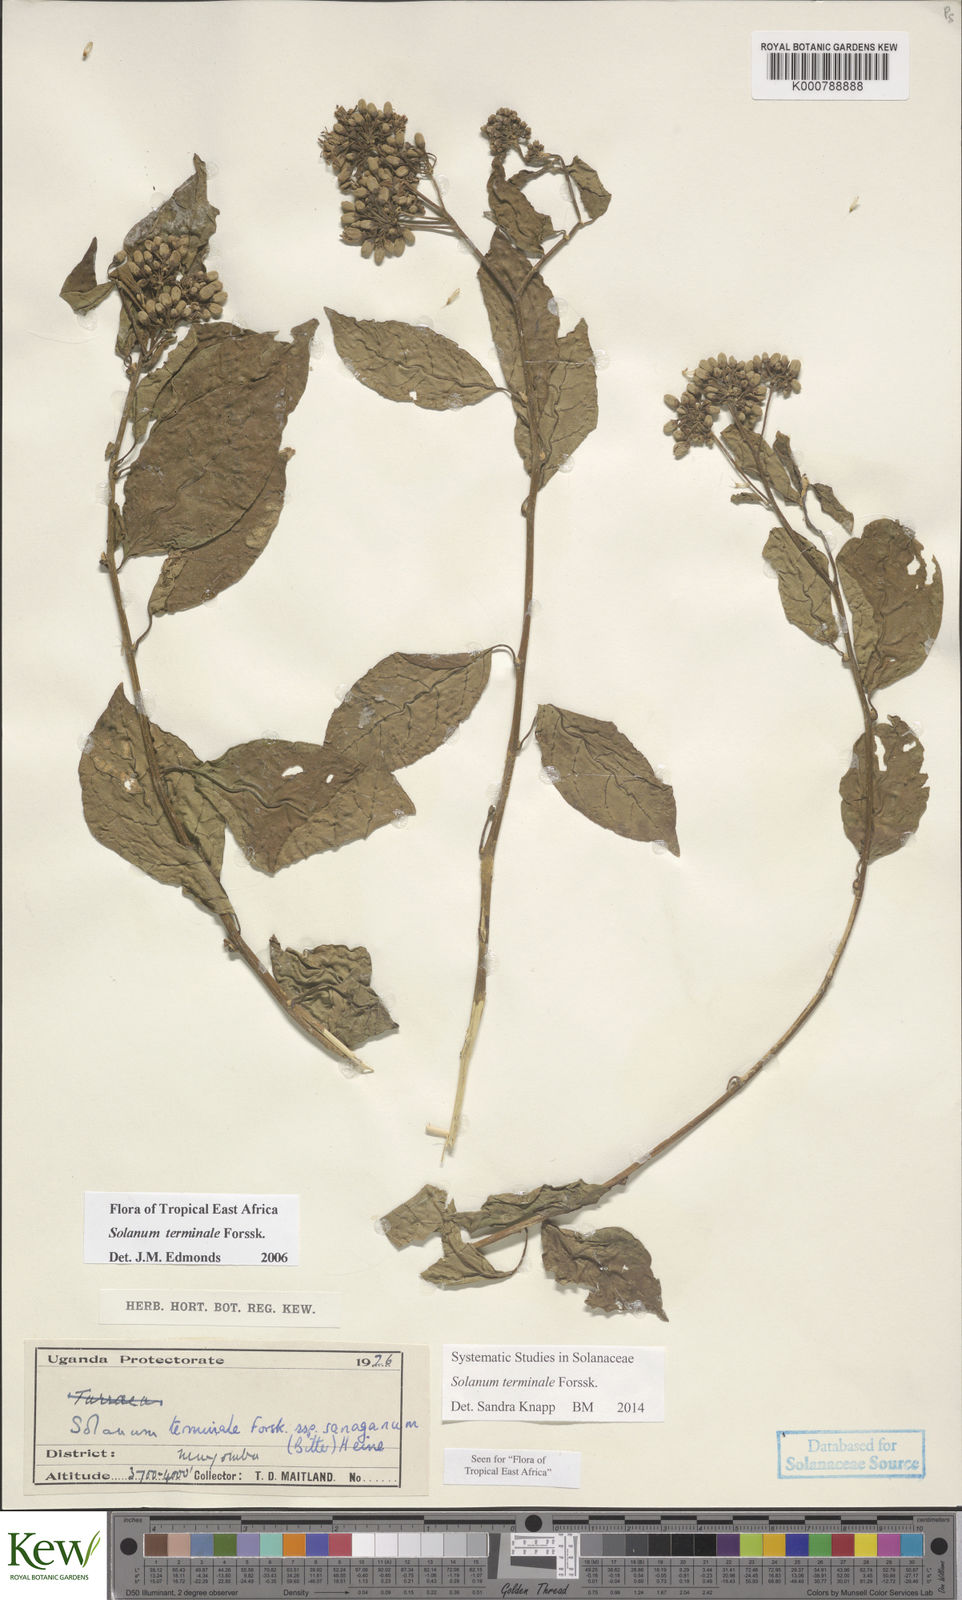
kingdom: Plantae
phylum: Tracheophyta
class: Magnoliopsida
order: Solanales
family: Solanaceae
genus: Solanum
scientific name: Solanum terminale
